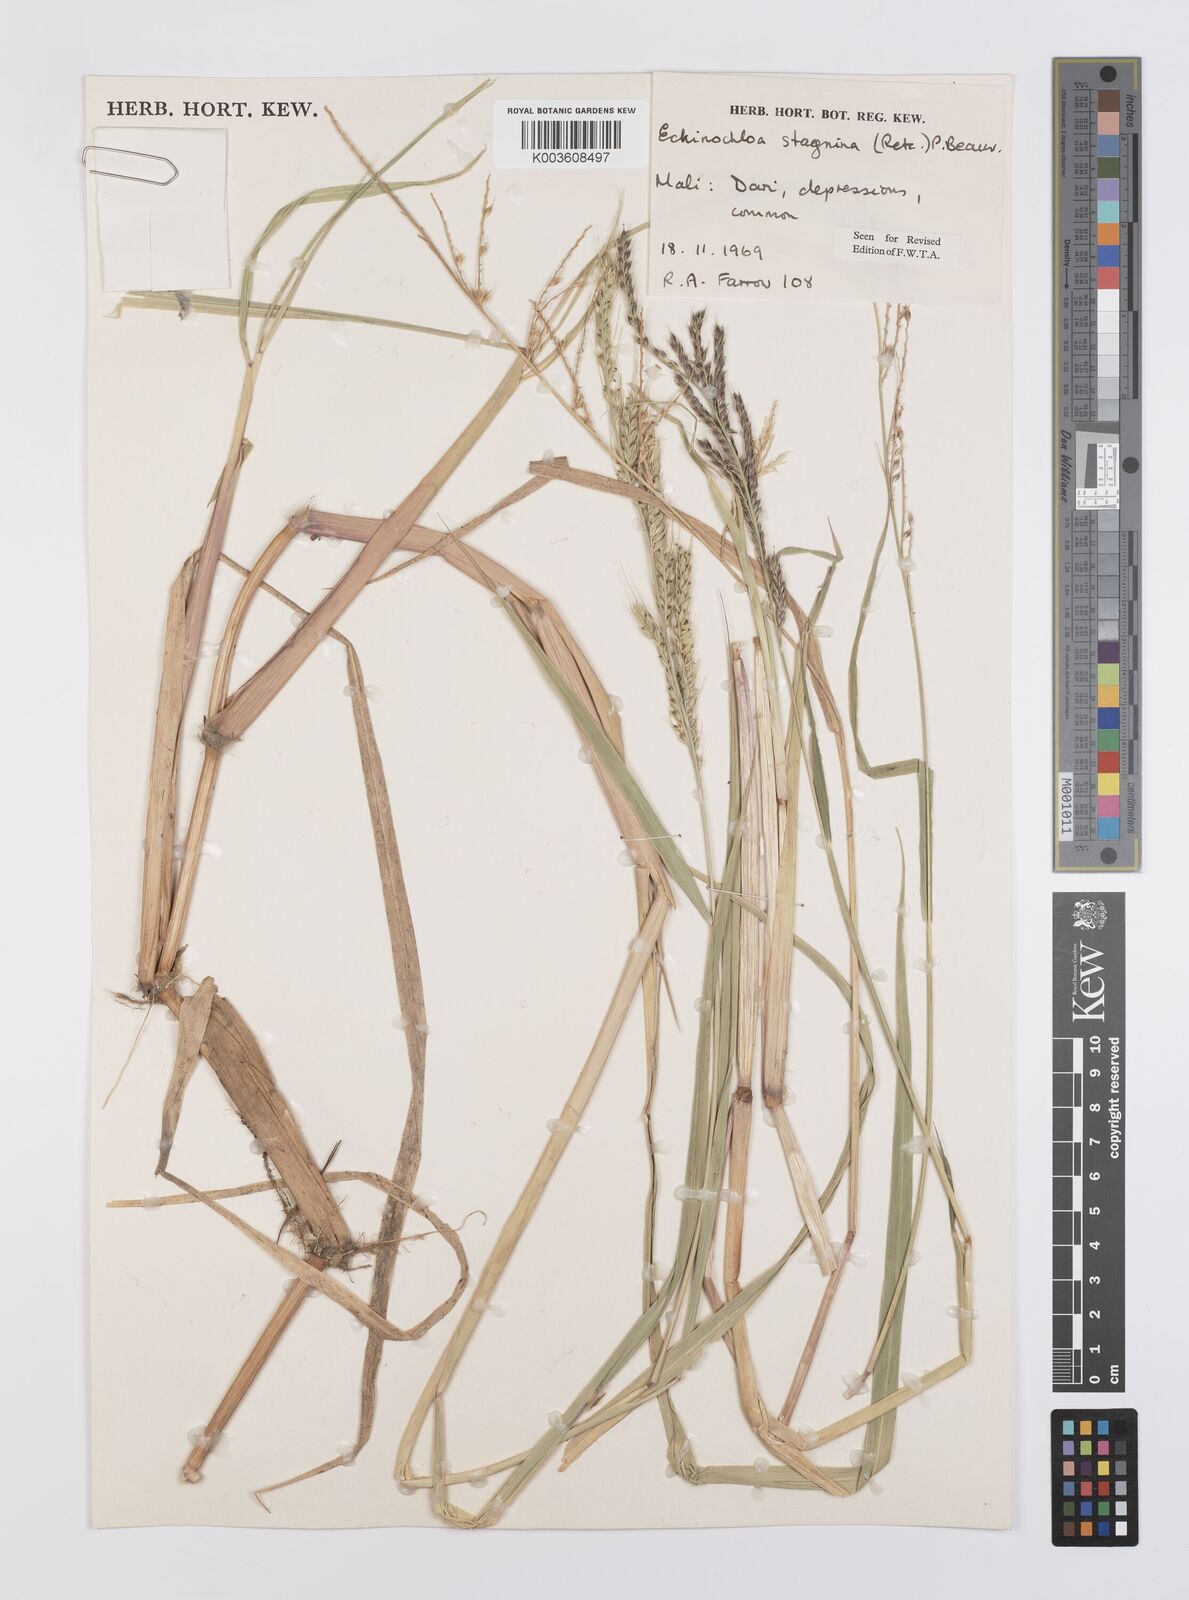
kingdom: Plantae
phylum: Tracheophyta
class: Liliopsida
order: Poales
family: Poaceae
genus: Echinochloa
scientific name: Echinochloa stagnina
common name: Burgu grass
